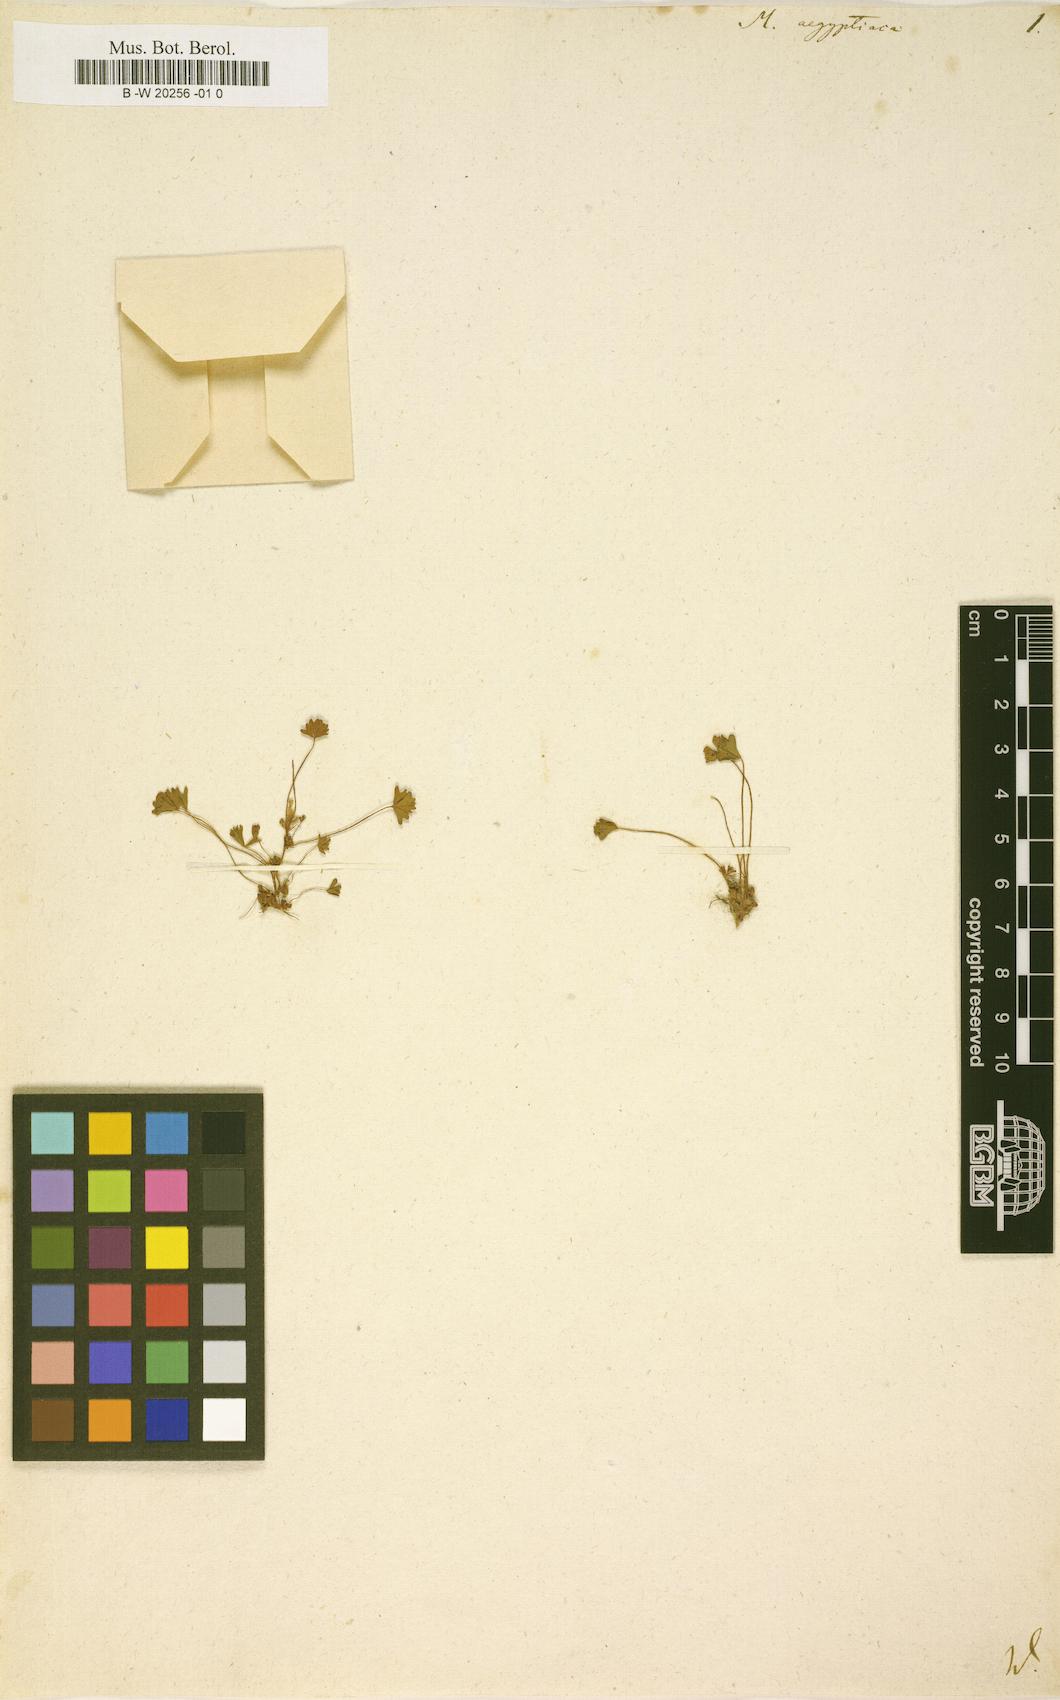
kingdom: Plantae
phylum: Tracheophyta
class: Polypodiopsida
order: Salviniales
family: Marsileaceae
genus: Marsilea
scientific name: Marsilea aegyptiaca
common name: Egyptian water-clover
